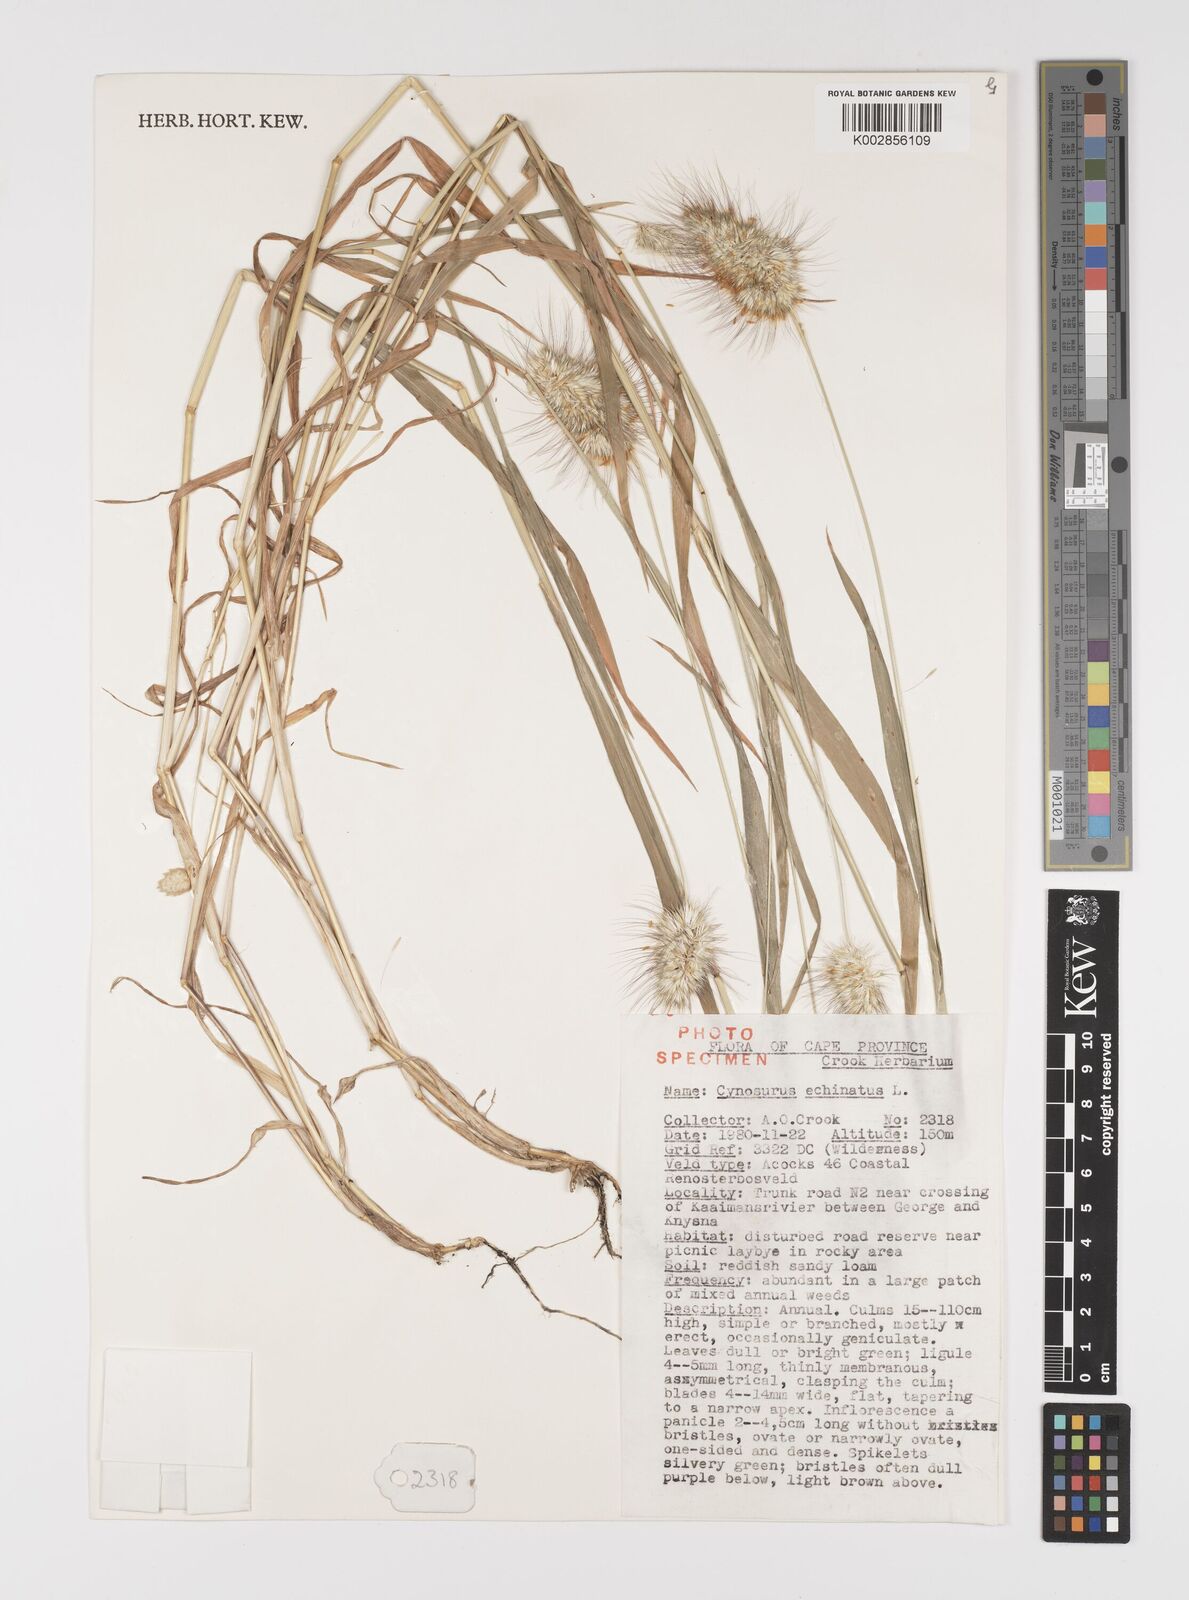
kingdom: Plantae
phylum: Tracheophyta
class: Liliopsida
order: Poales
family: Poaceae
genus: Cynosurus
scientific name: Cynosurus echinatus
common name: Rough dog's-tail
